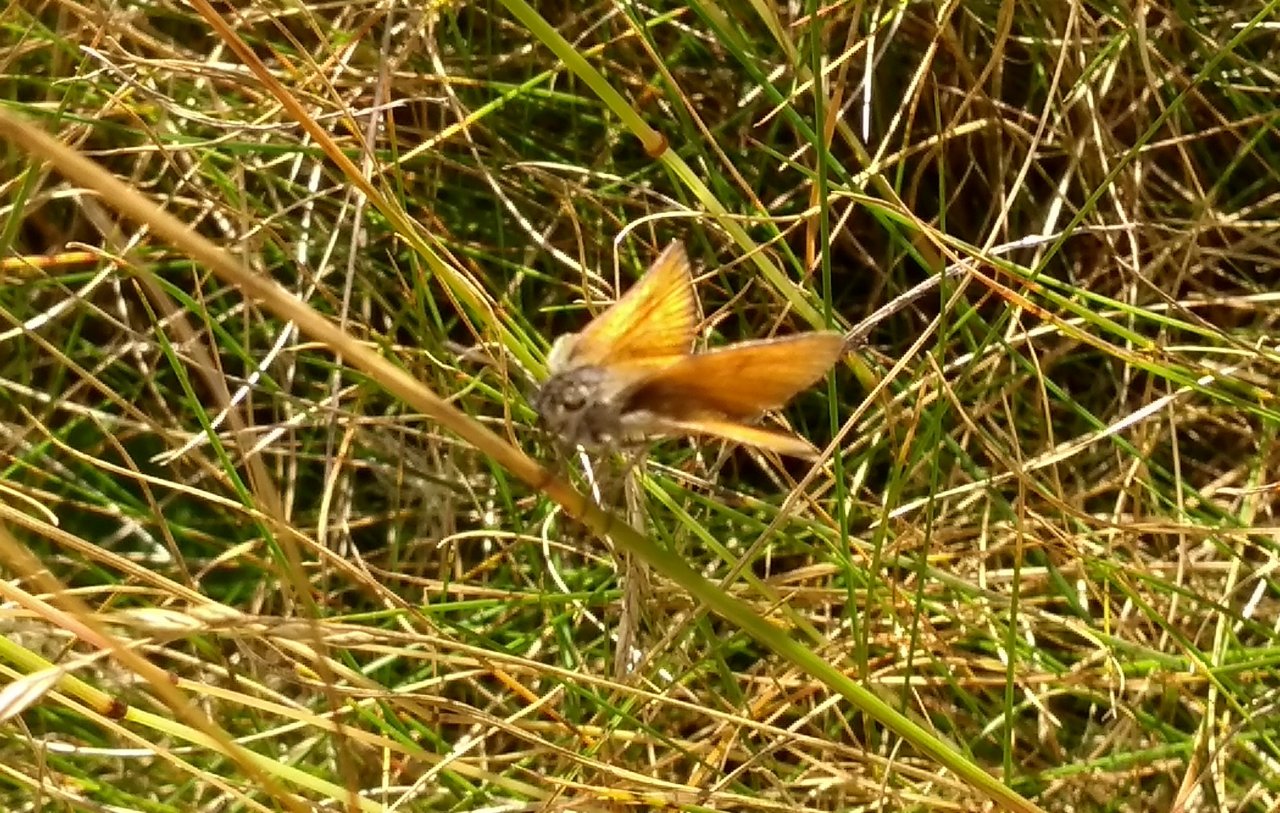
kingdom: Animalia
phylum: Arthropoda
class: Insecta
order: Lepidoptera
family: Hesperiidae
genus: Thymelicus
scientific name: Thymelicus lineola
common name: European Skipper
